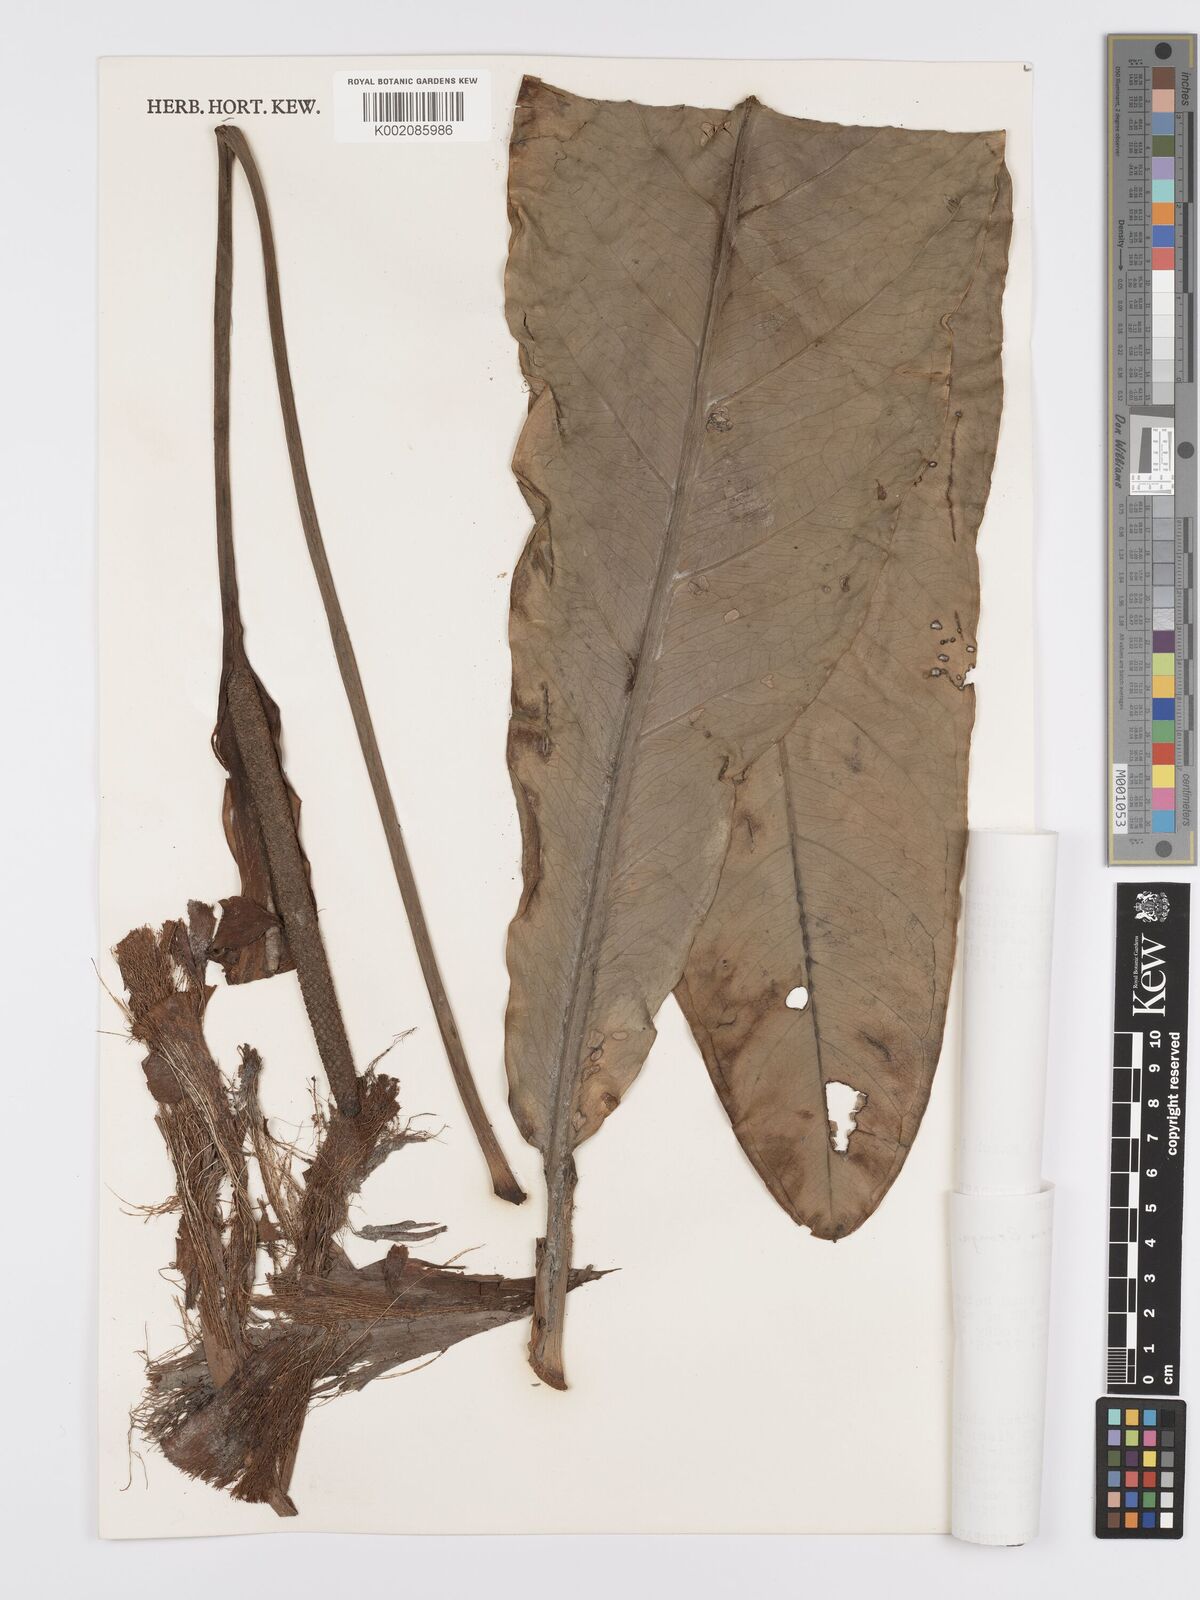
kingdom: Plantae
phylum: Tracheophyta
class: Liliopsida
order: Alismatales
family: Araceae
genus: Anthurium
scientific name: Anthurium dombeyanum
